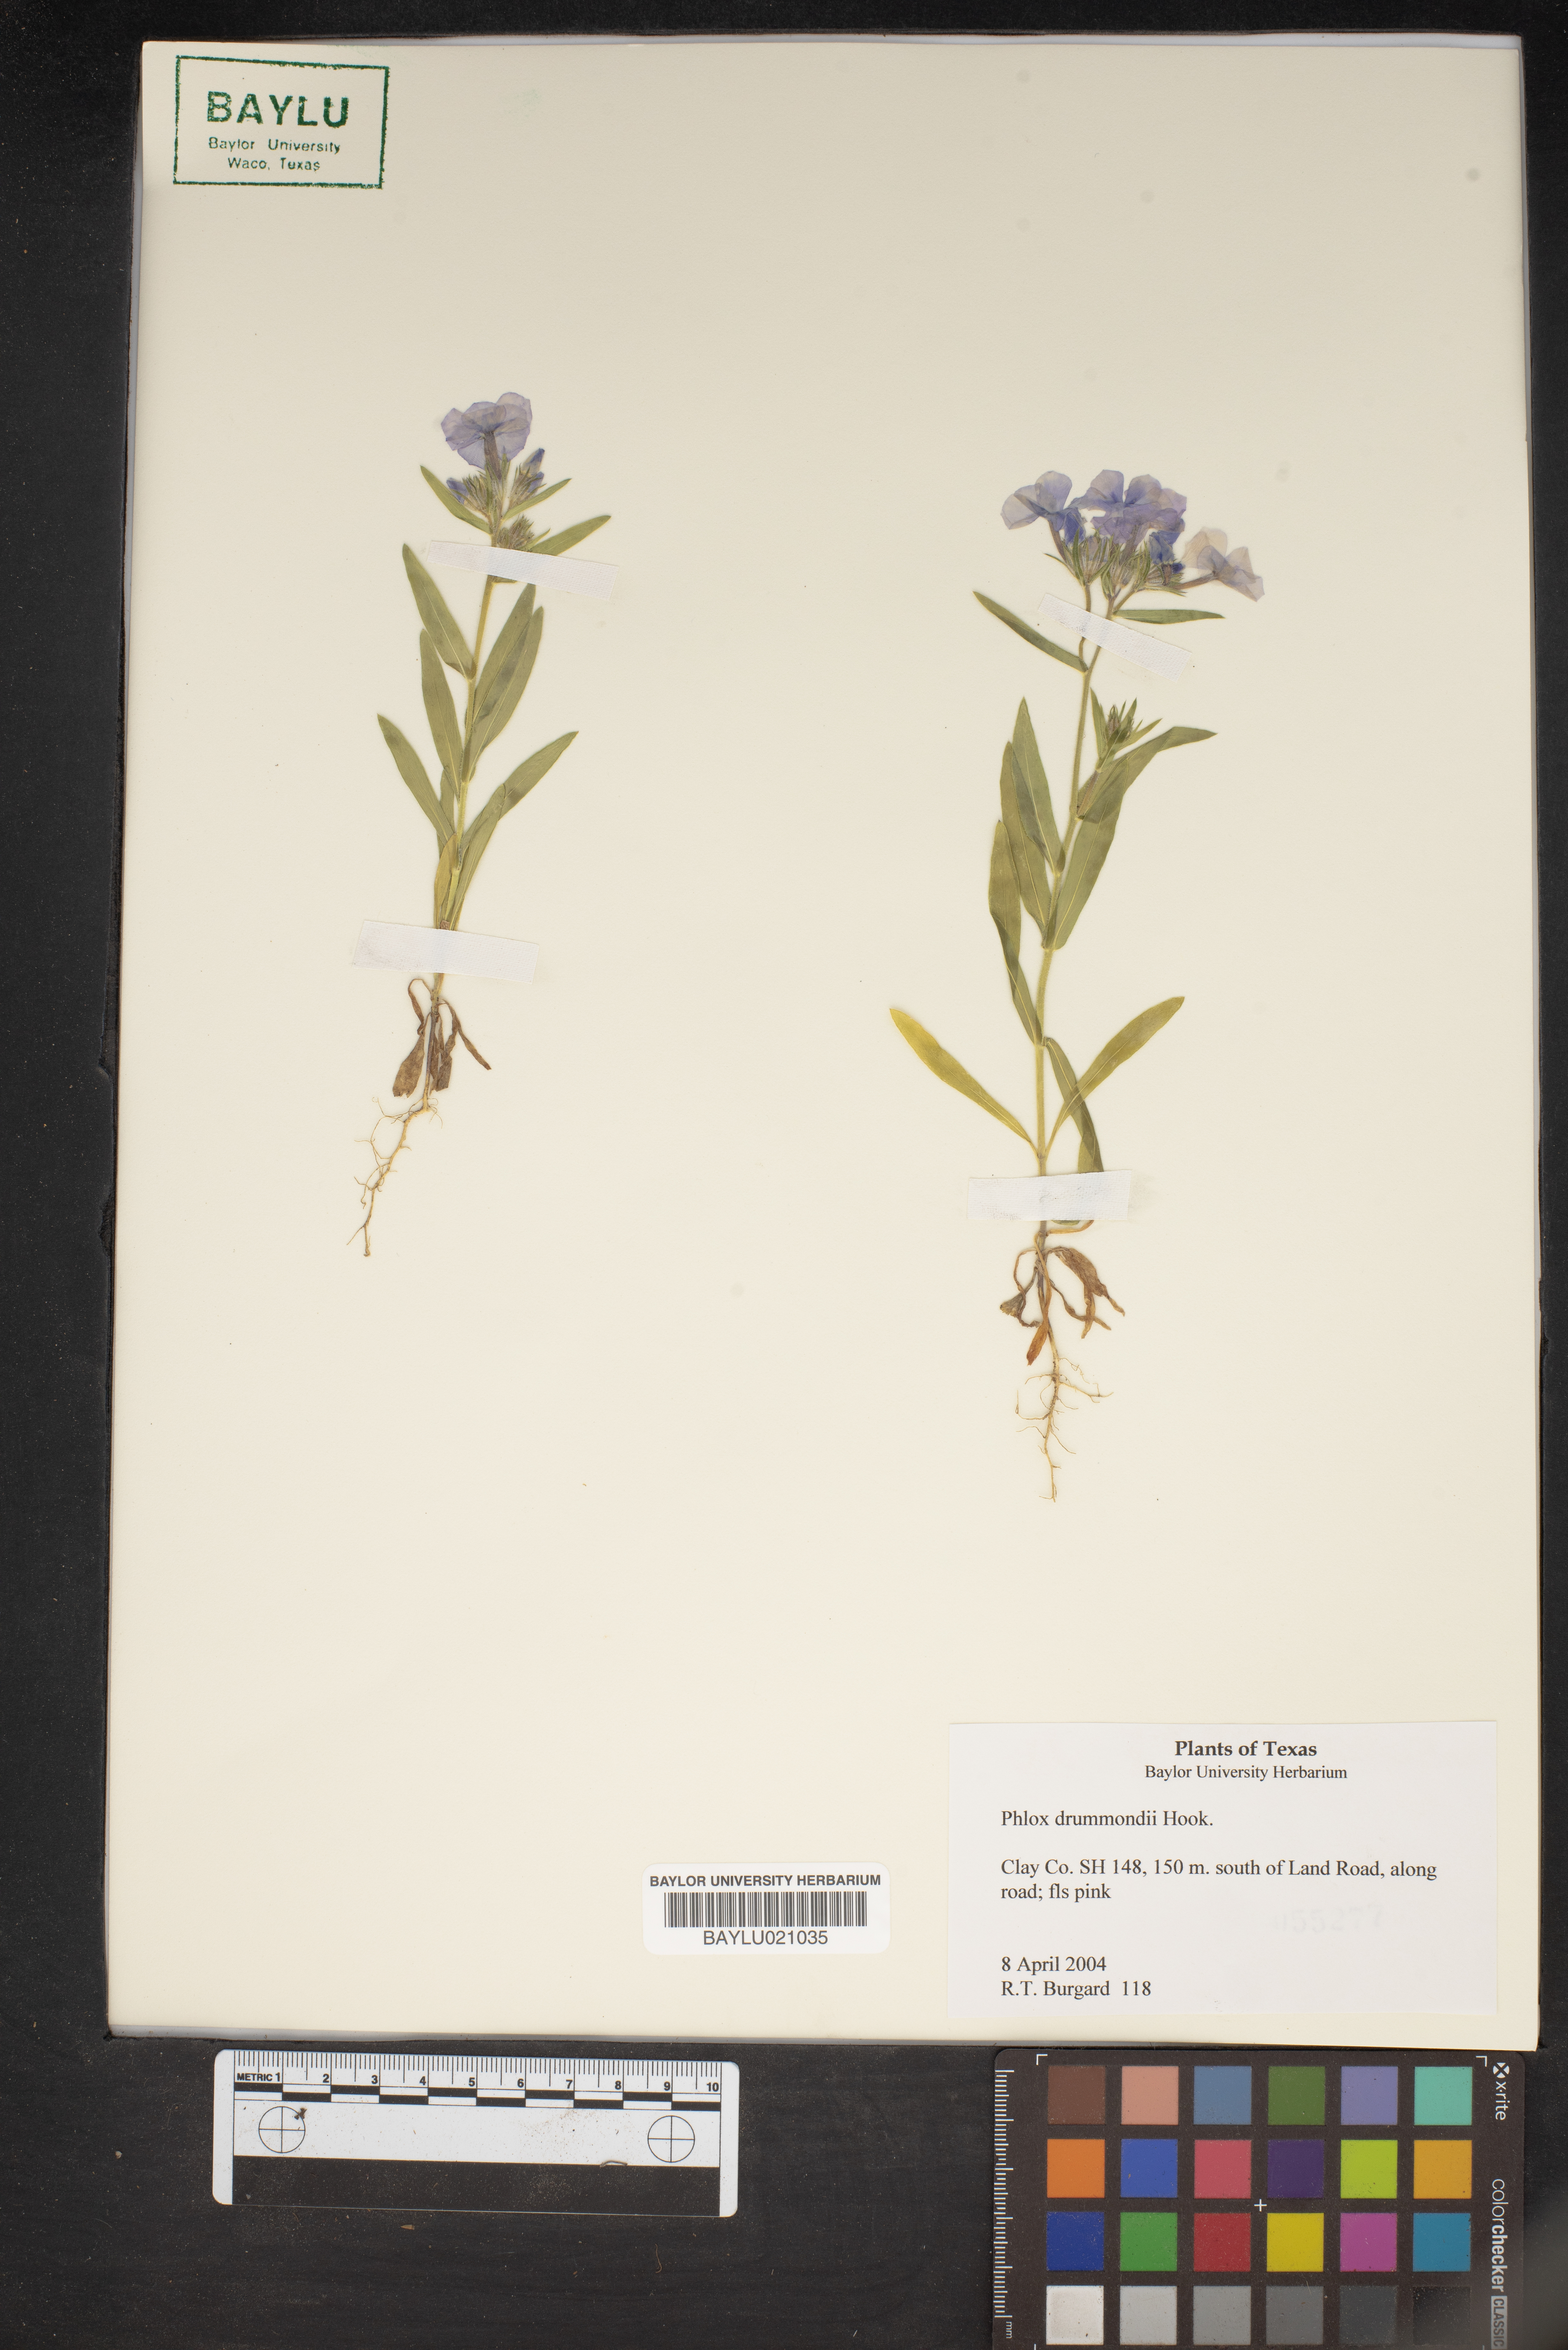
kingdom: Plantae
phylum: Tracheophyta
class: Magnoliopsida
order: Ericales
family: Polemoniaceae
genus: Phlox
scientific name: Phlox drummondii
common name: Drummond's phlox
